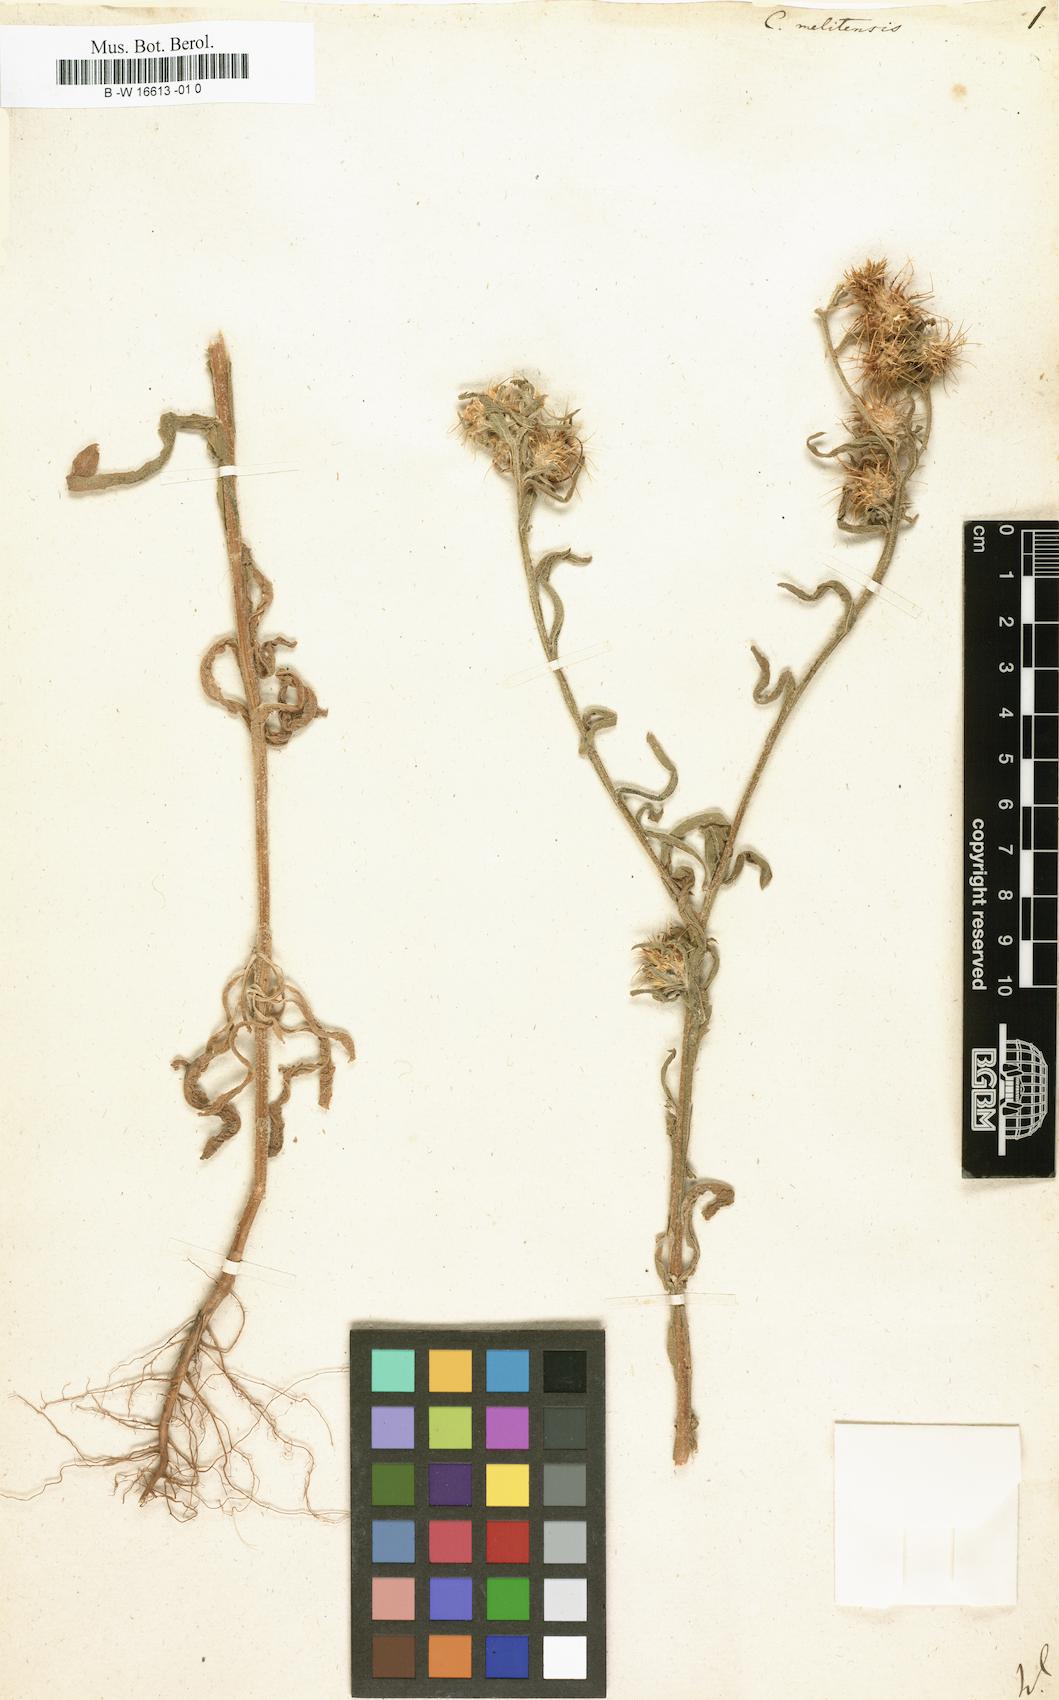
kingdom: Plantae
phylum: Tracheophyta
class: Magnoliopsida
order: Asterales
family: Asteraceae
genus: Centaurea
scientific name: Centaurea melitensis
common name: Maltese star-thistle
